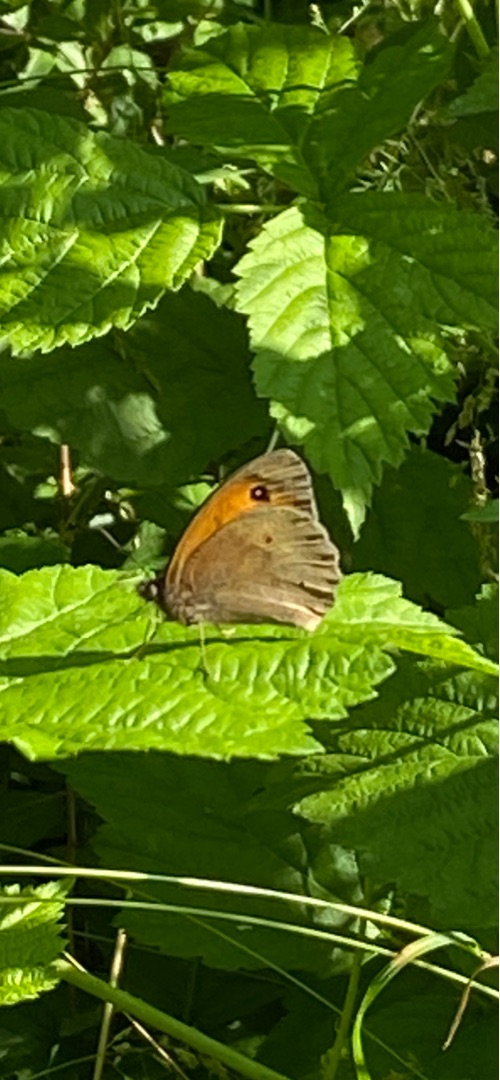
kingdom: Animalia
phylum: Arthropoda
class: Insecta
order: Lepidoptera
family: Nymphalidae
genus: Maniola
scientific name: Maniola jurtina
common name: Græsrandøje
